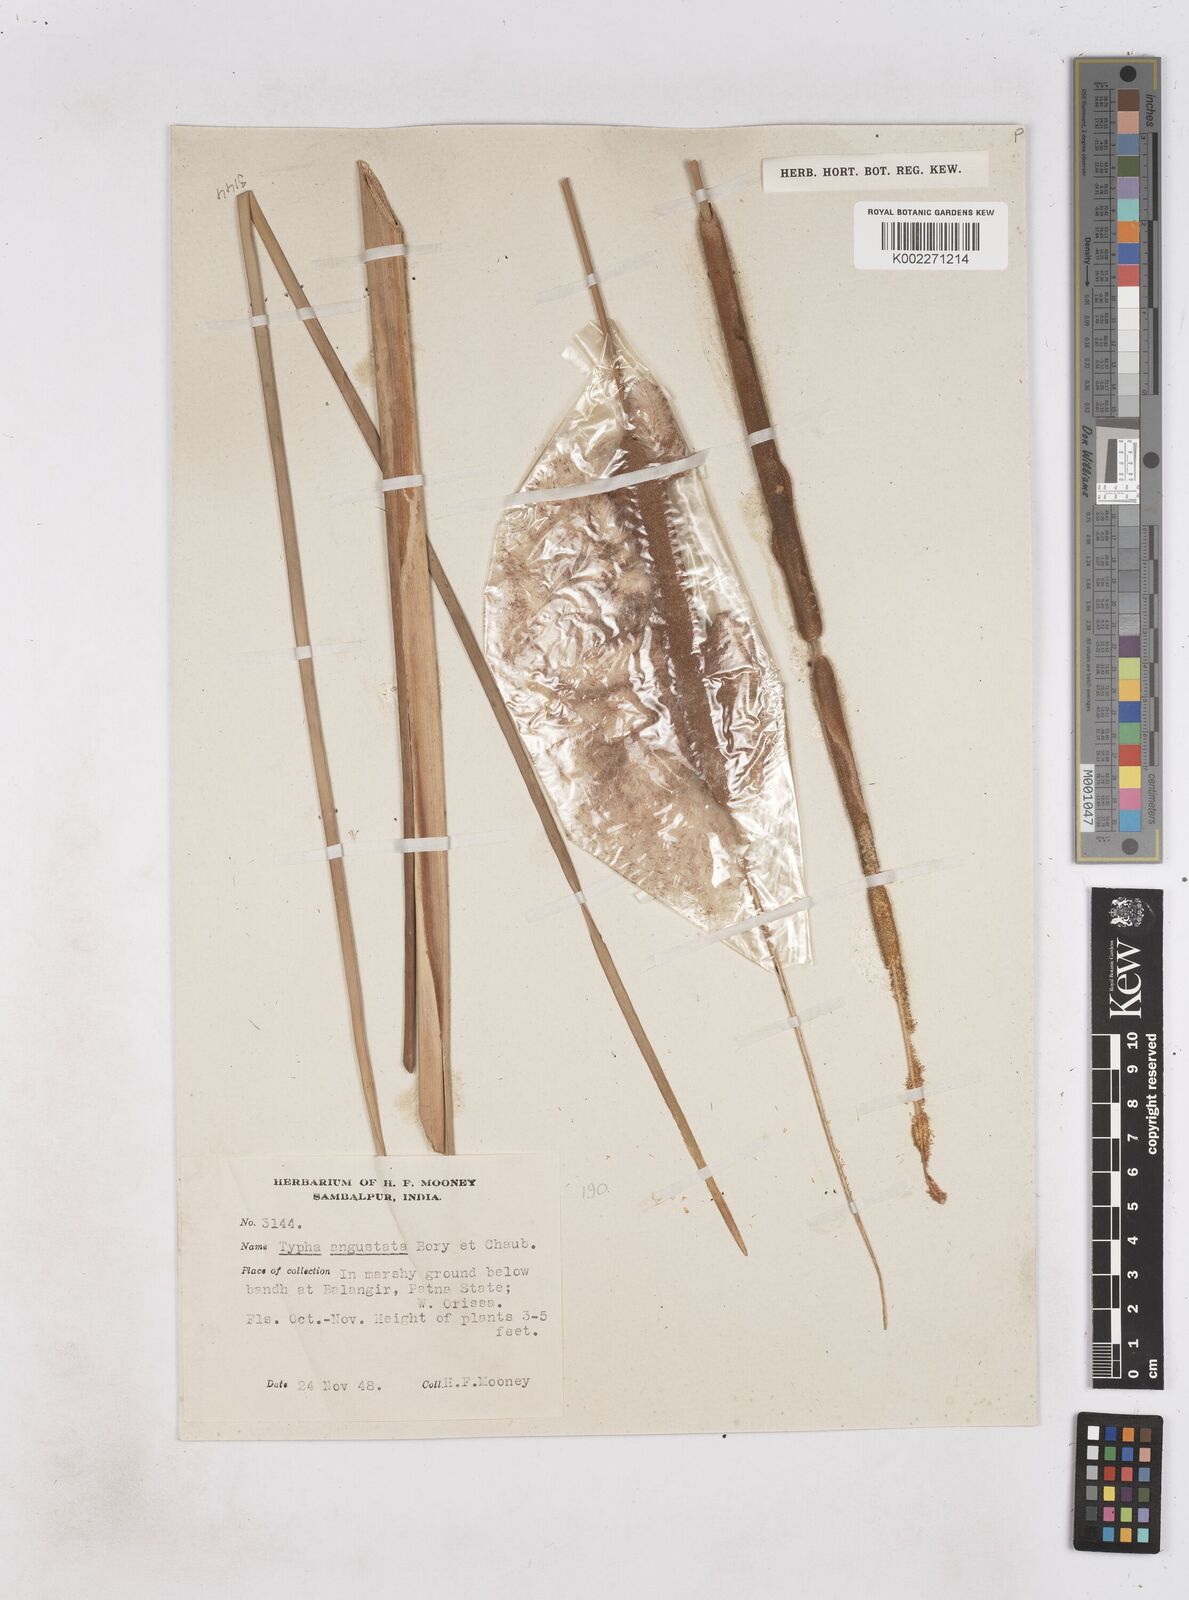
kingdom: Plantae
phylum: Tracheophyta
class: Liliopsida
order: Poales
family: Typhaceae
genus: Typha
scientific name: Typha domingensis
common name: Southern cattail
